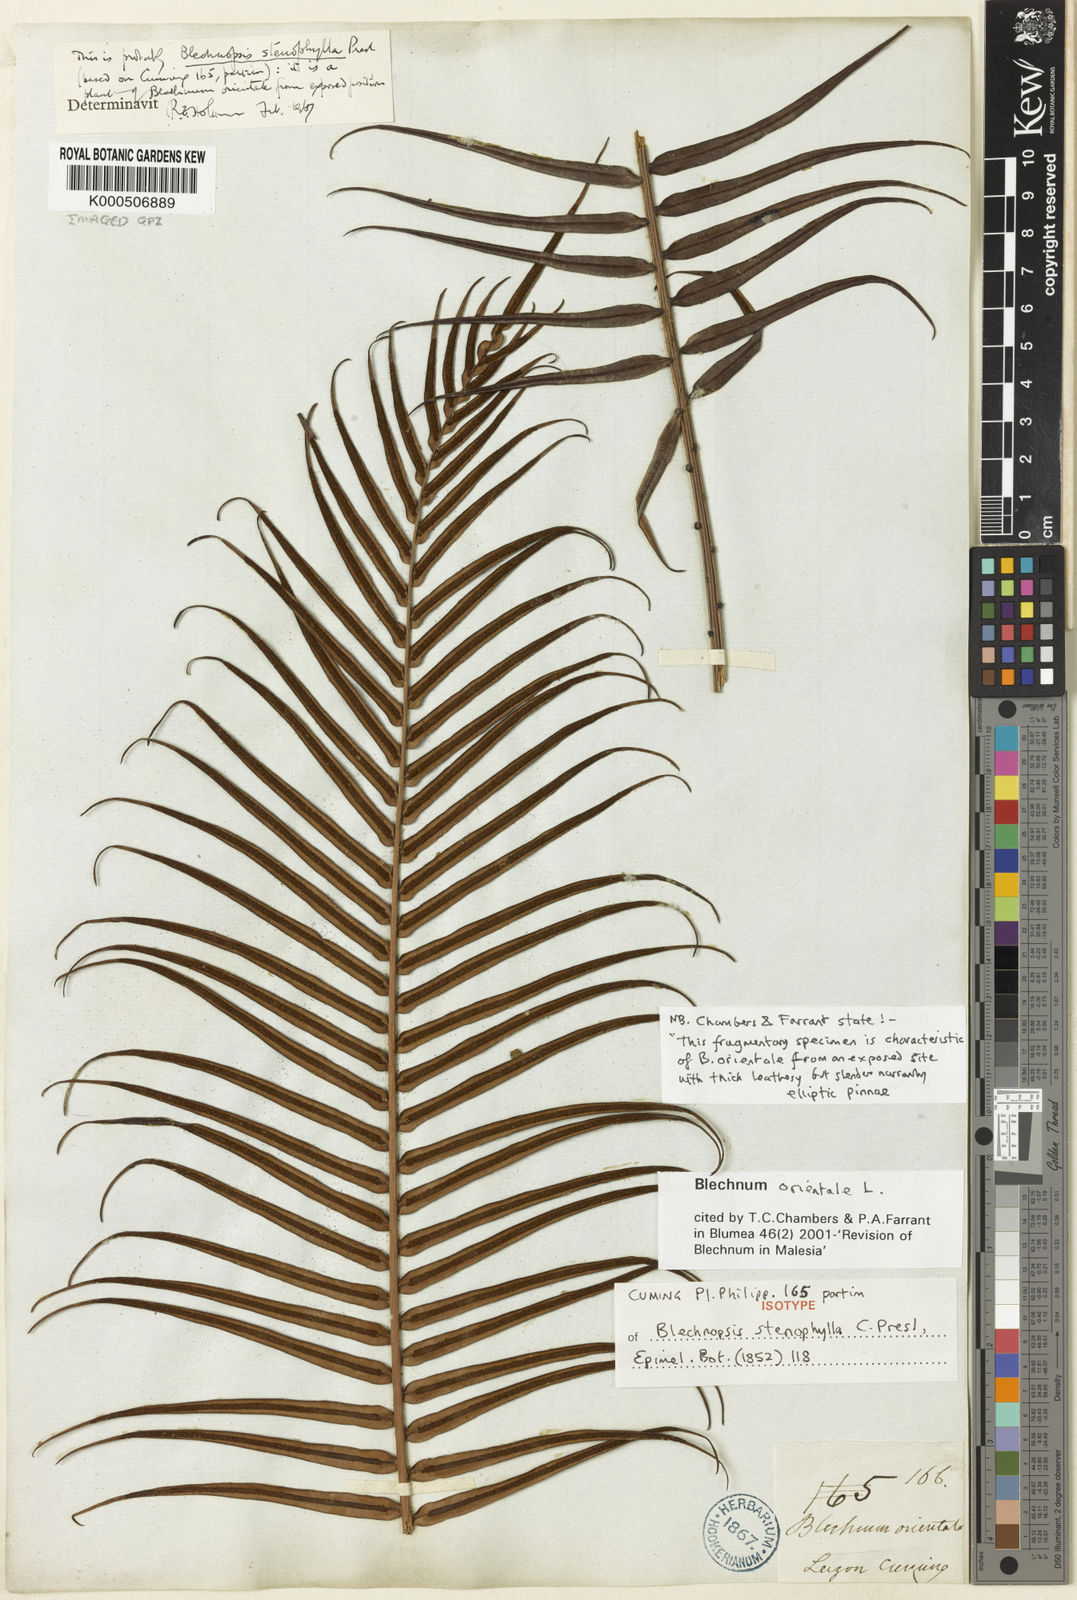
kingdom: Plantae
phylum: Tracheophyta
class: Polypodiopsida
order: Polypodiales
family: Blechnaceae
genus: Blechnopsis
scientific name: Blechnopsis orientalis
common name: Oriental blechnum
